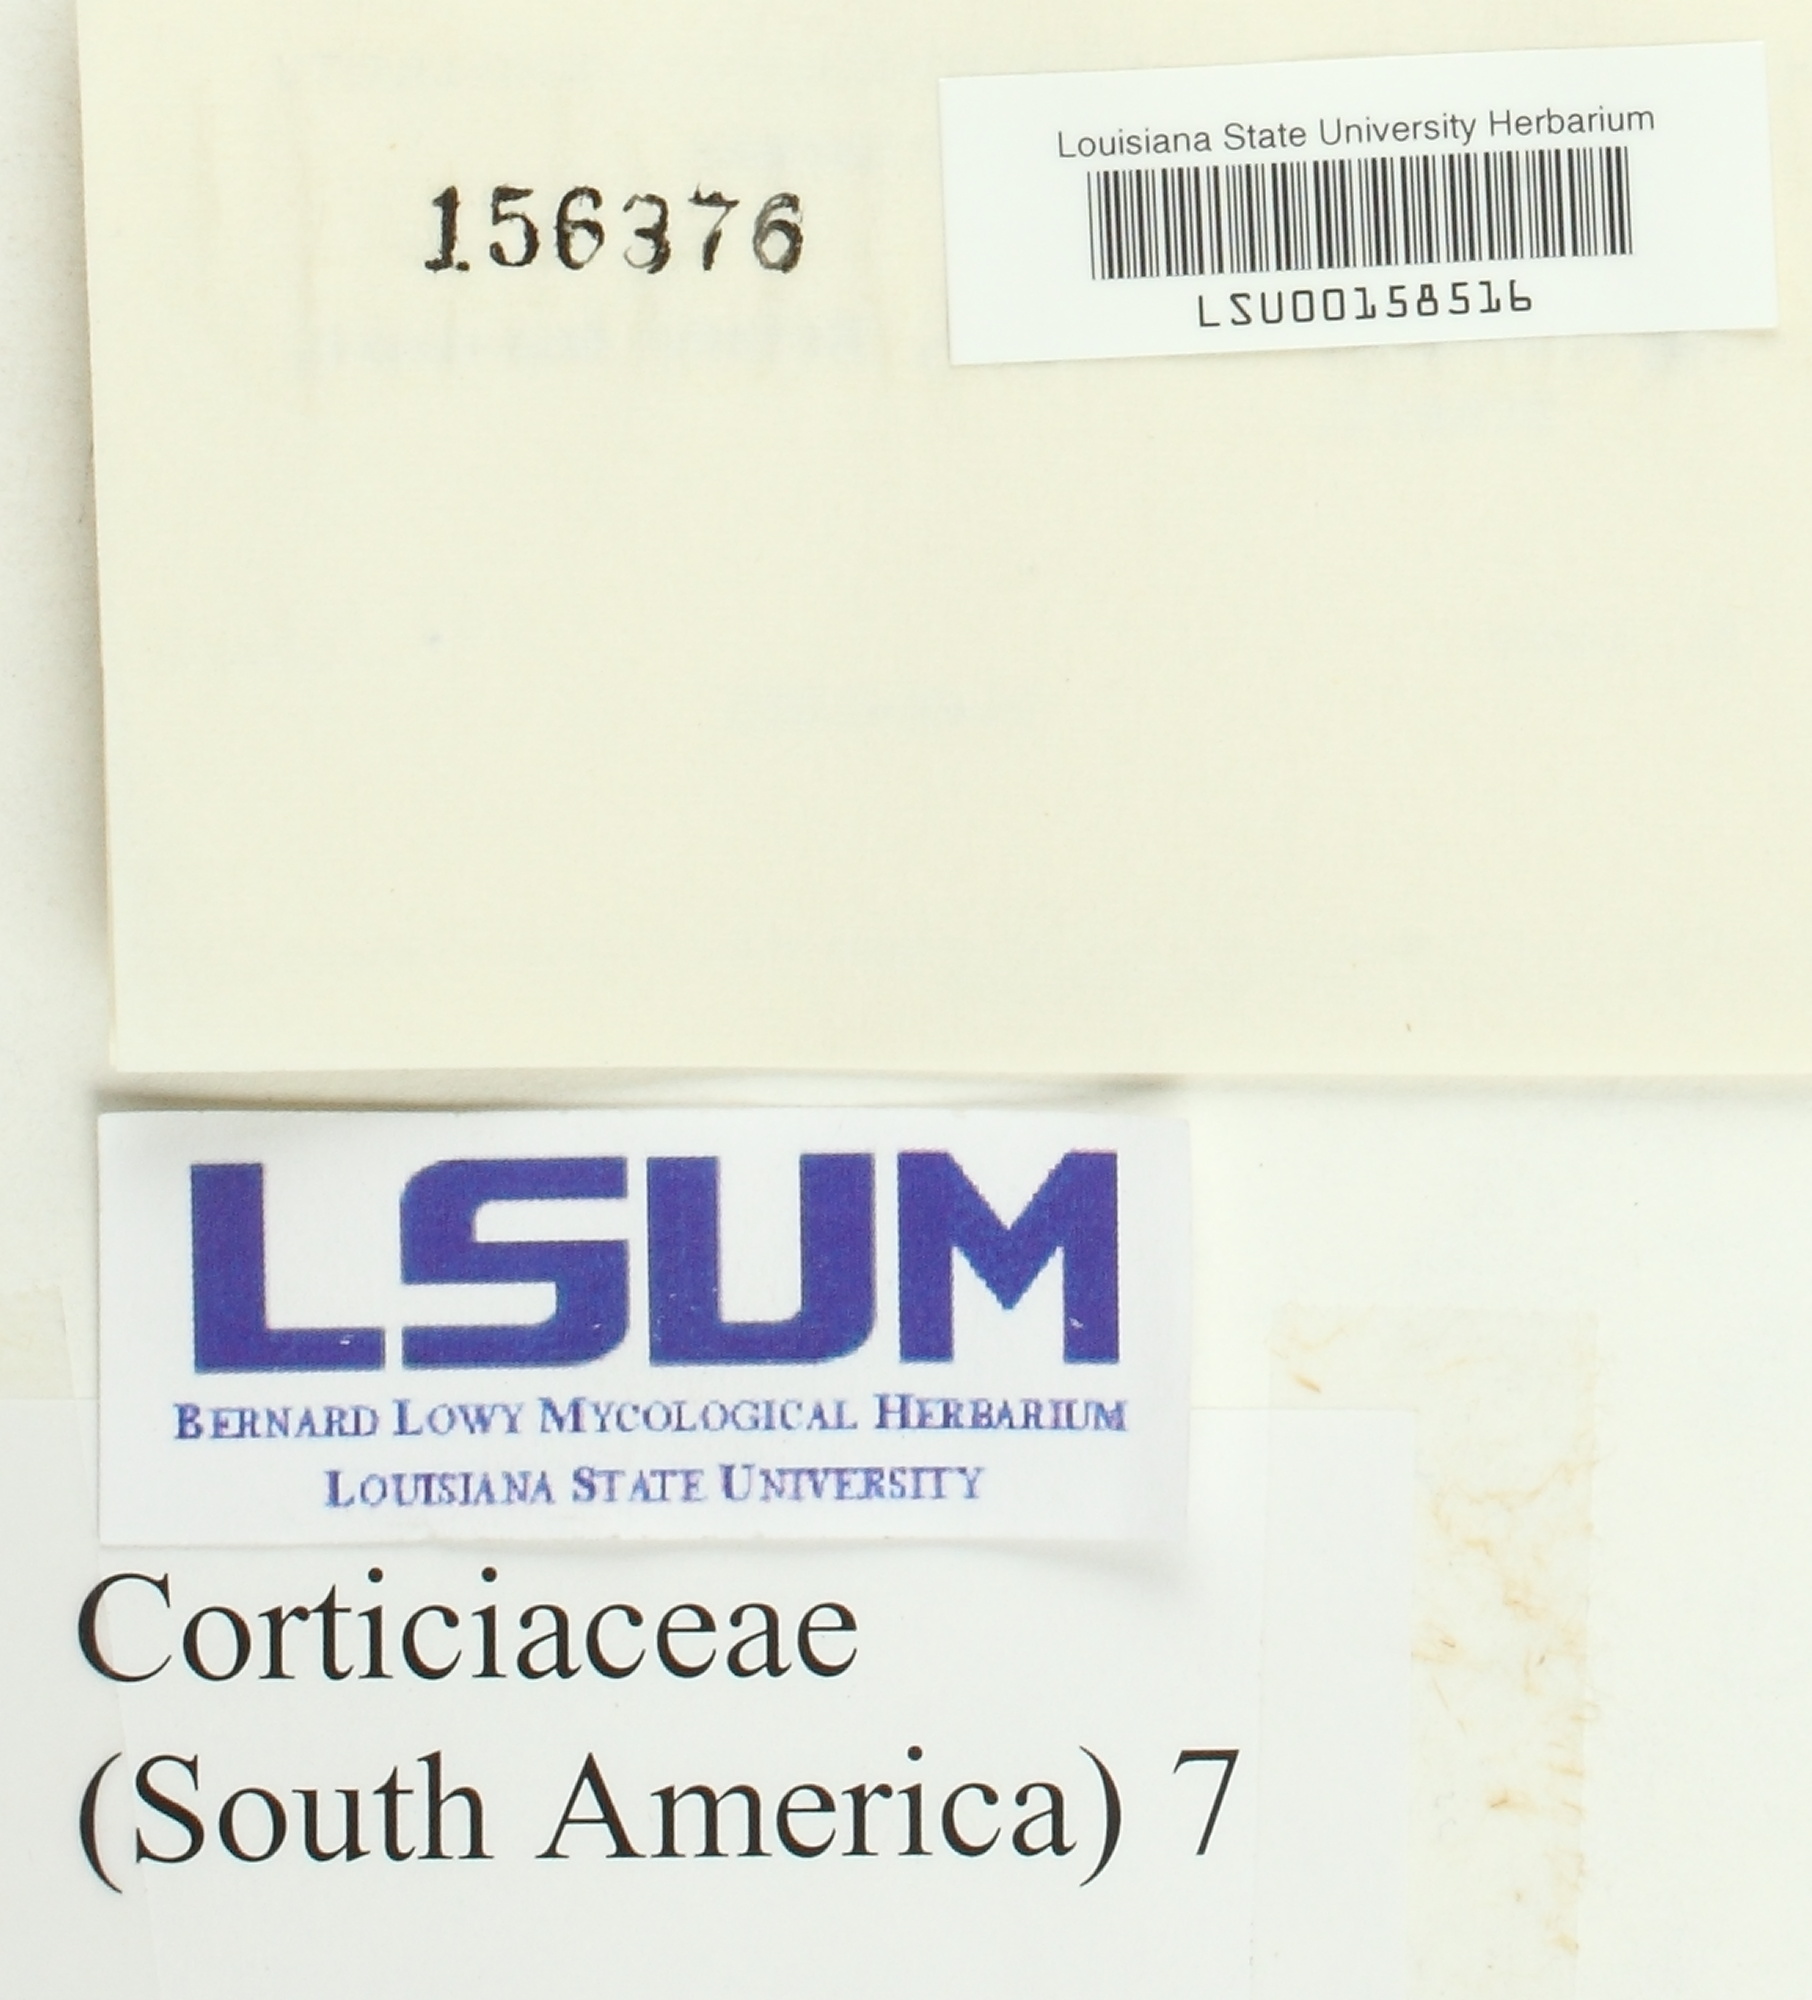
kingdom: Fungi
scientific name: Fungi
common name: Fungi
